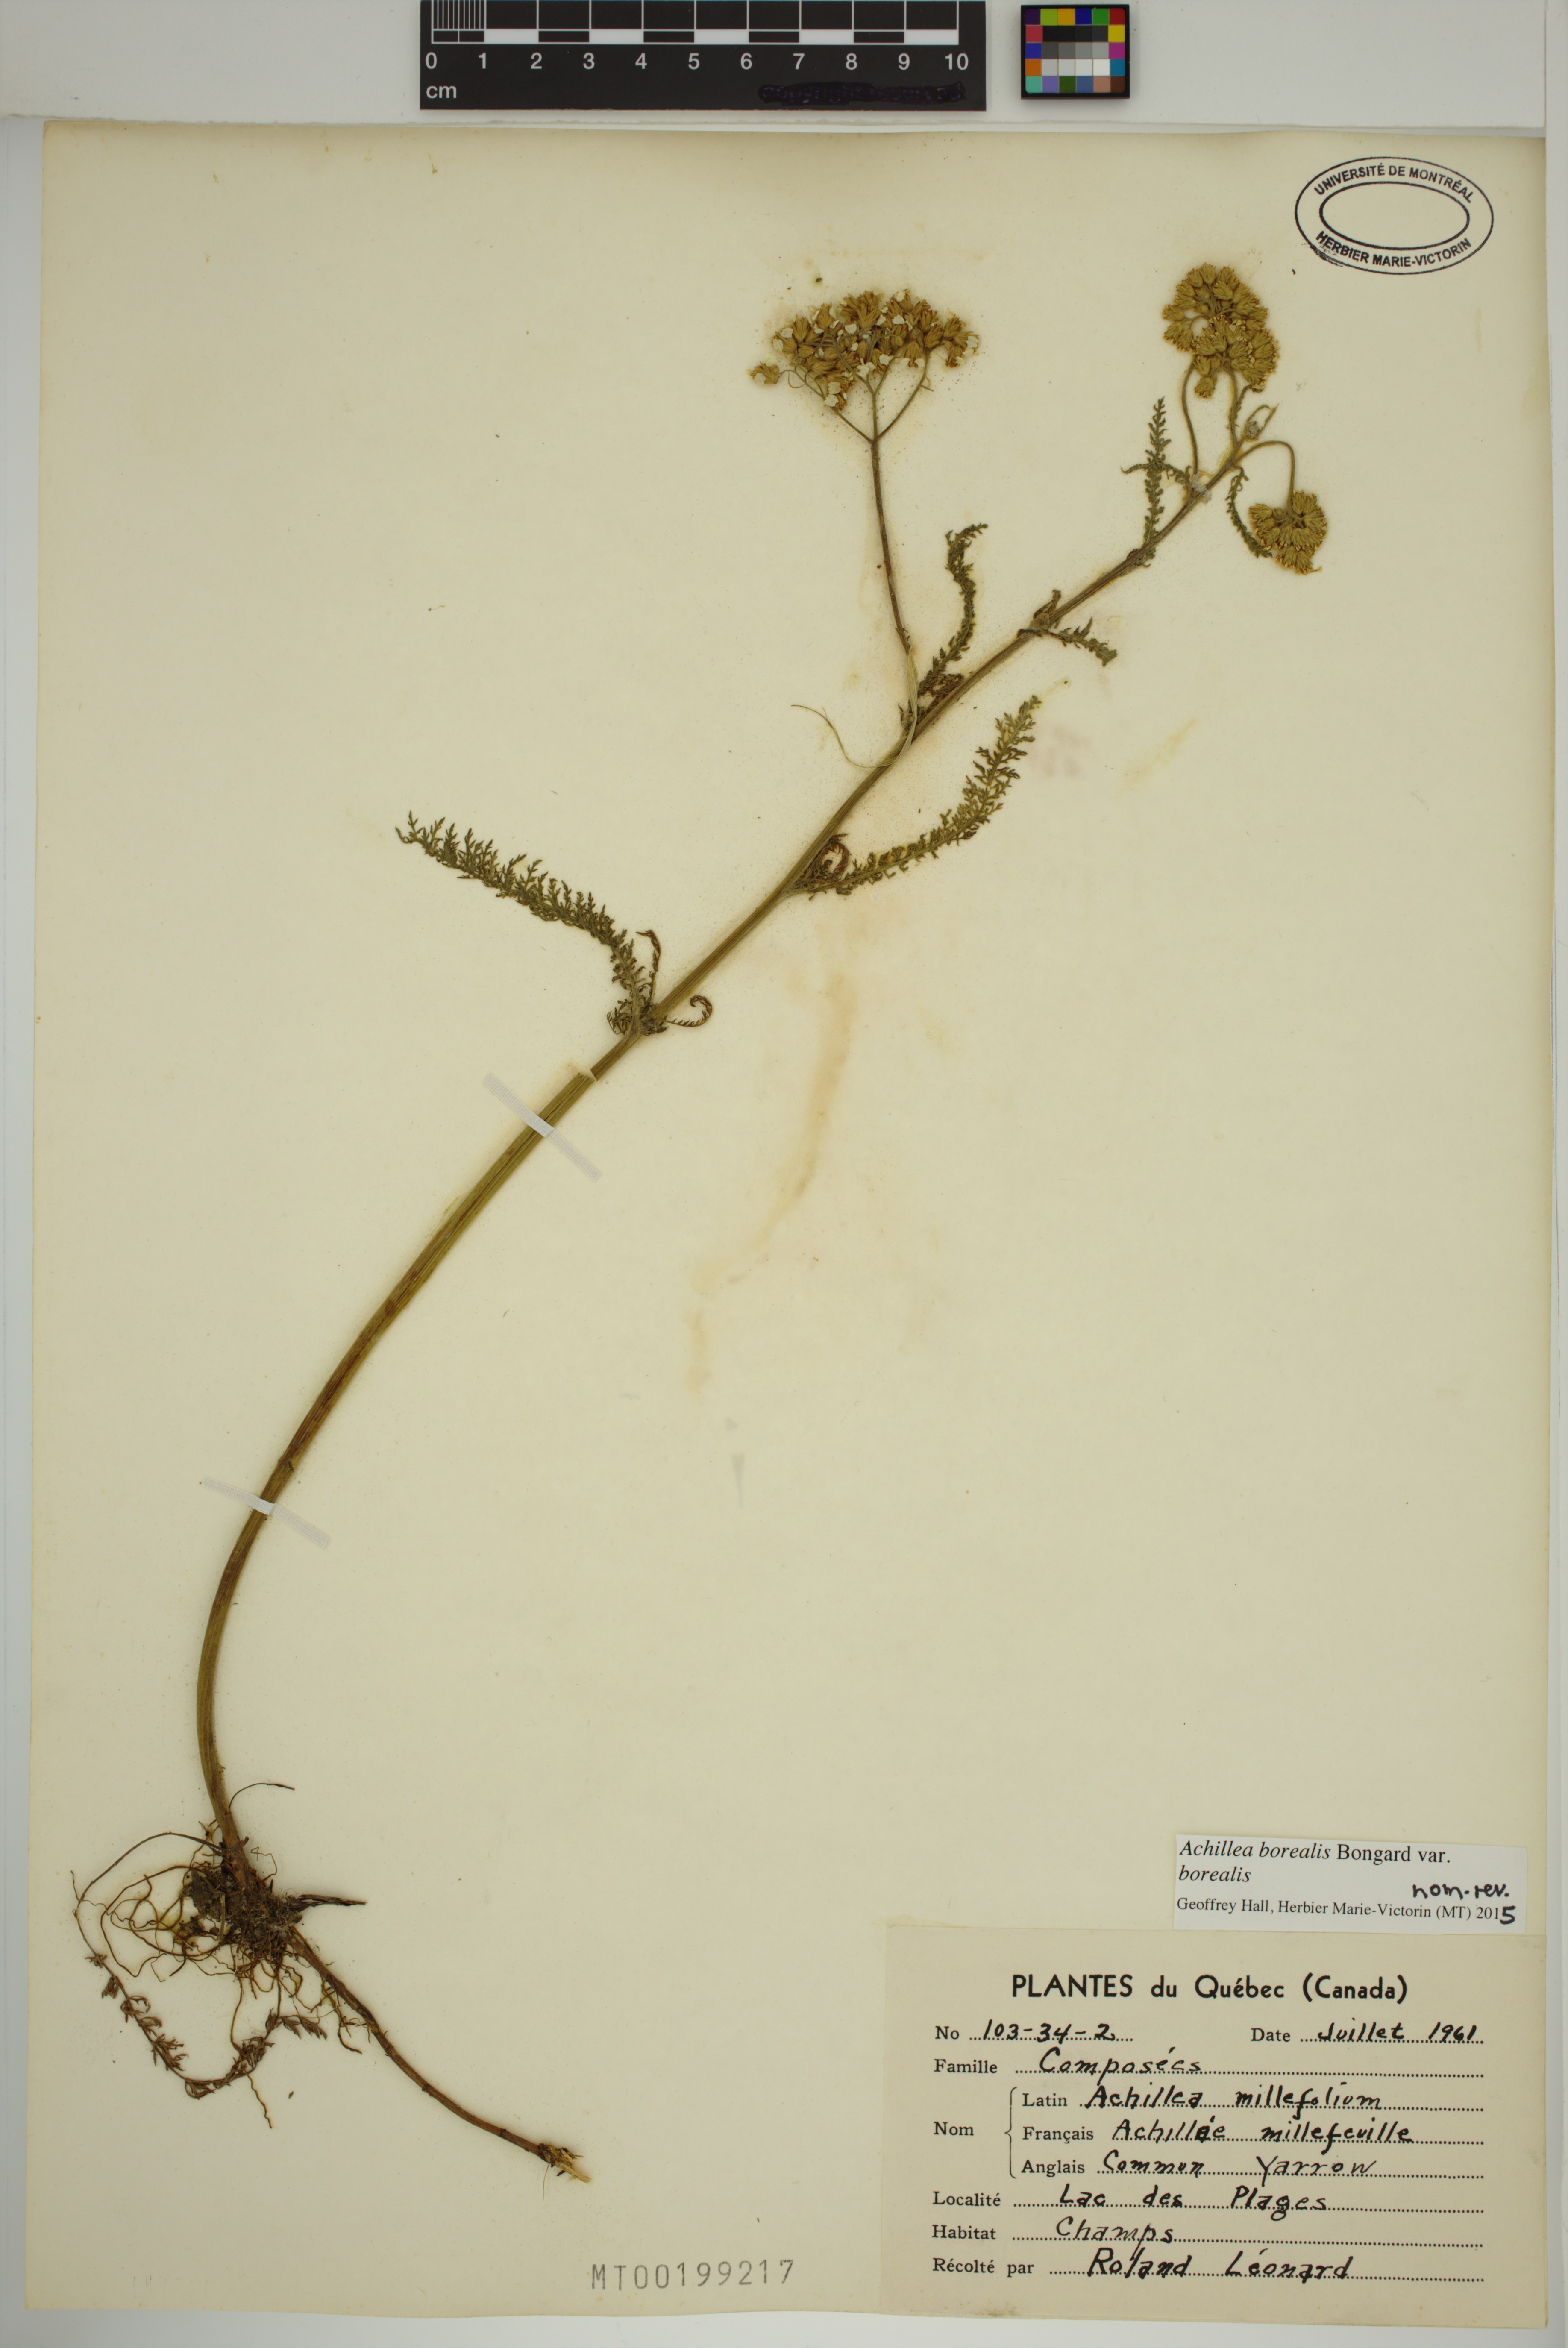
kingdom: Plantae
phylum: Tracheophyta
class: Magnoliopsida
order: Asterales
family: Asteraceae
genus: Achillea
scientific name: Achillea millefolium
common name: Yarrow
